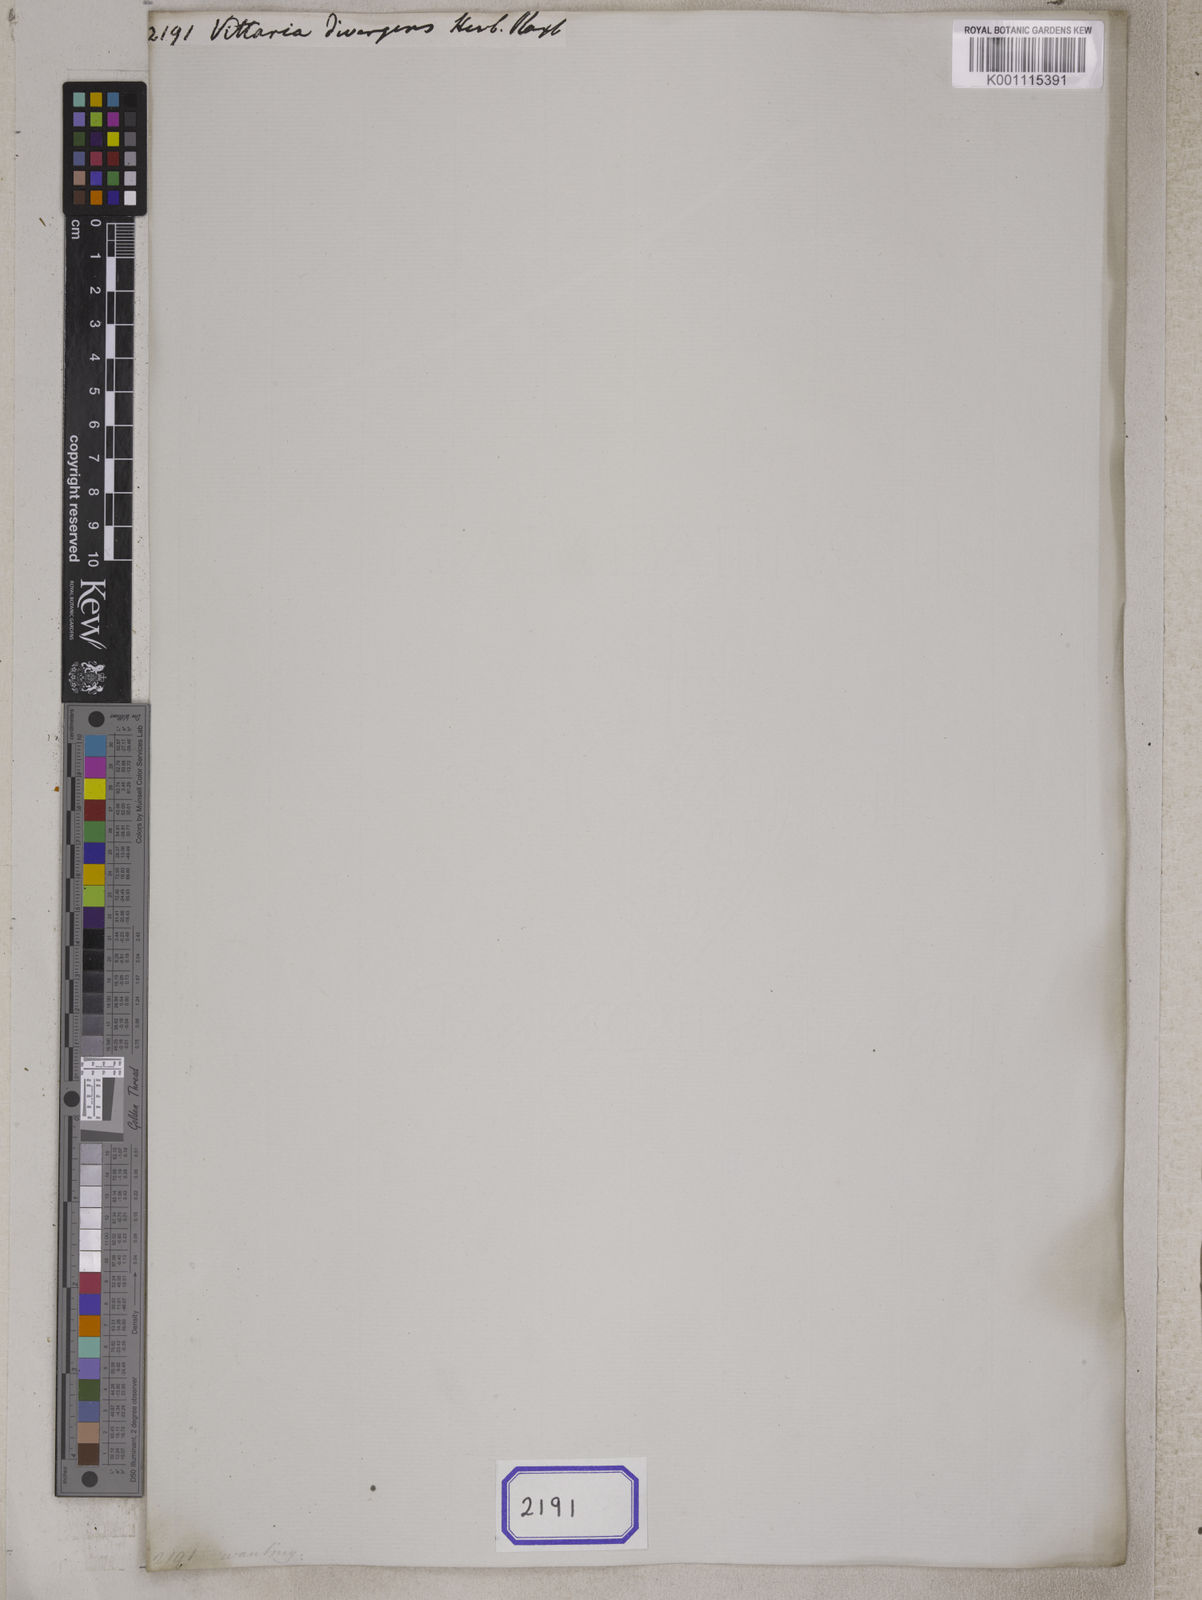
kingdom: Plantae
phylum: Tracheophyta
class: Polypodiopsida
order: Polypodiales
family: Pteridaceae
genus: Vittaria
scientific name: Vittaria
